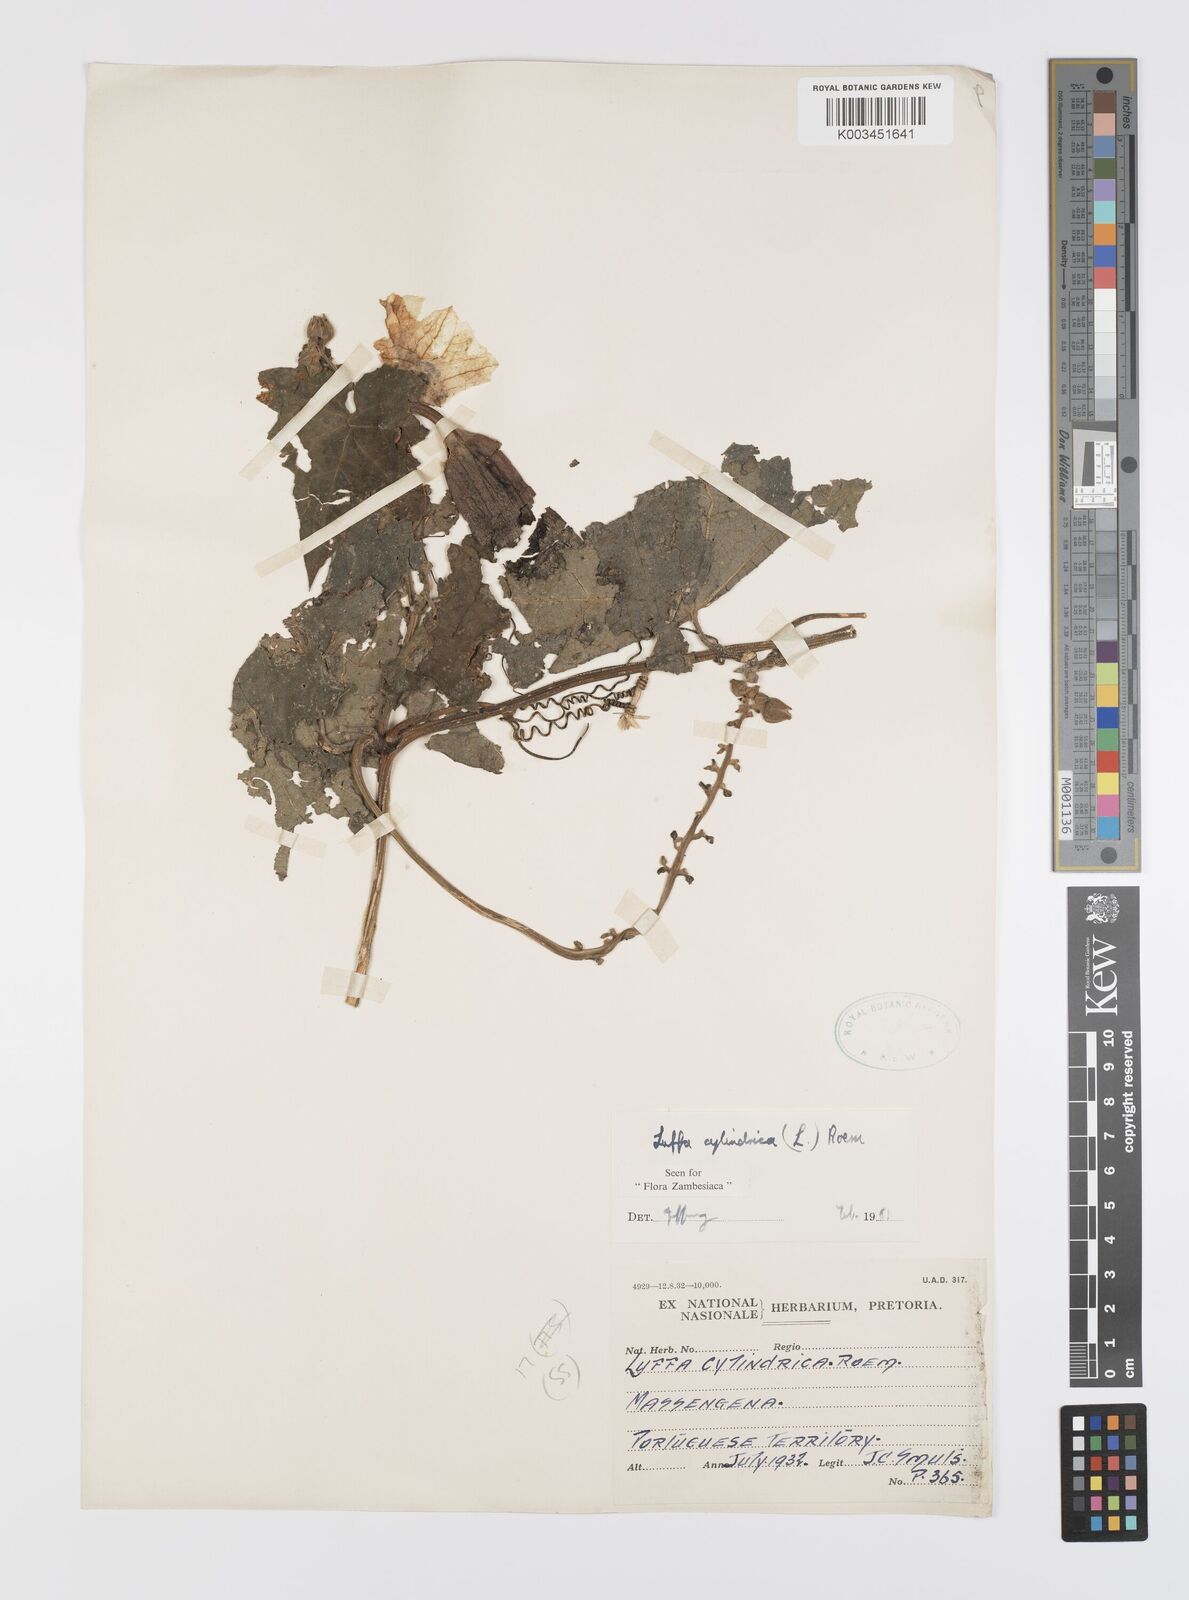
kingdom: Plantae
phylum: Tracheophyta
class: Magnoliopsida
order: Cucurbitales
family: Cucurbitaceae
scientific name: Cucurbitaceae
